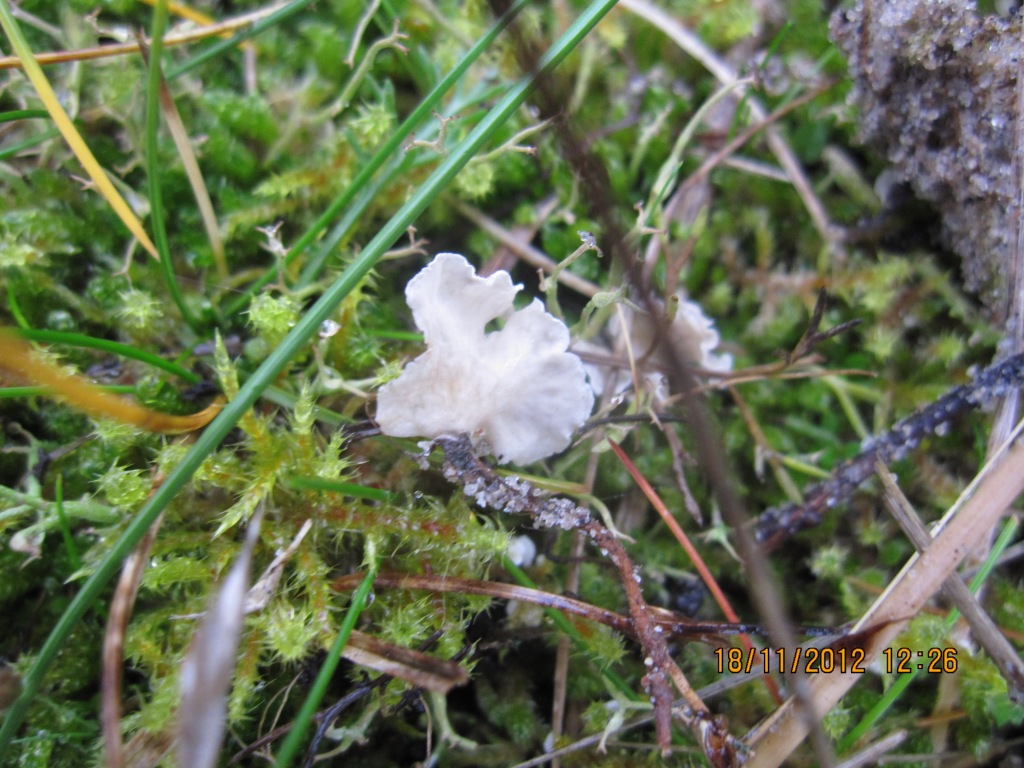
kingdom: Fungi
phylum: Basidiomycota
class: Agaricomycetes
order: Agaricales
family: Hygrophoraceae
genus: Arrhenia
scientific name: Arrhenia retiruga
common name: lille fontænehat
